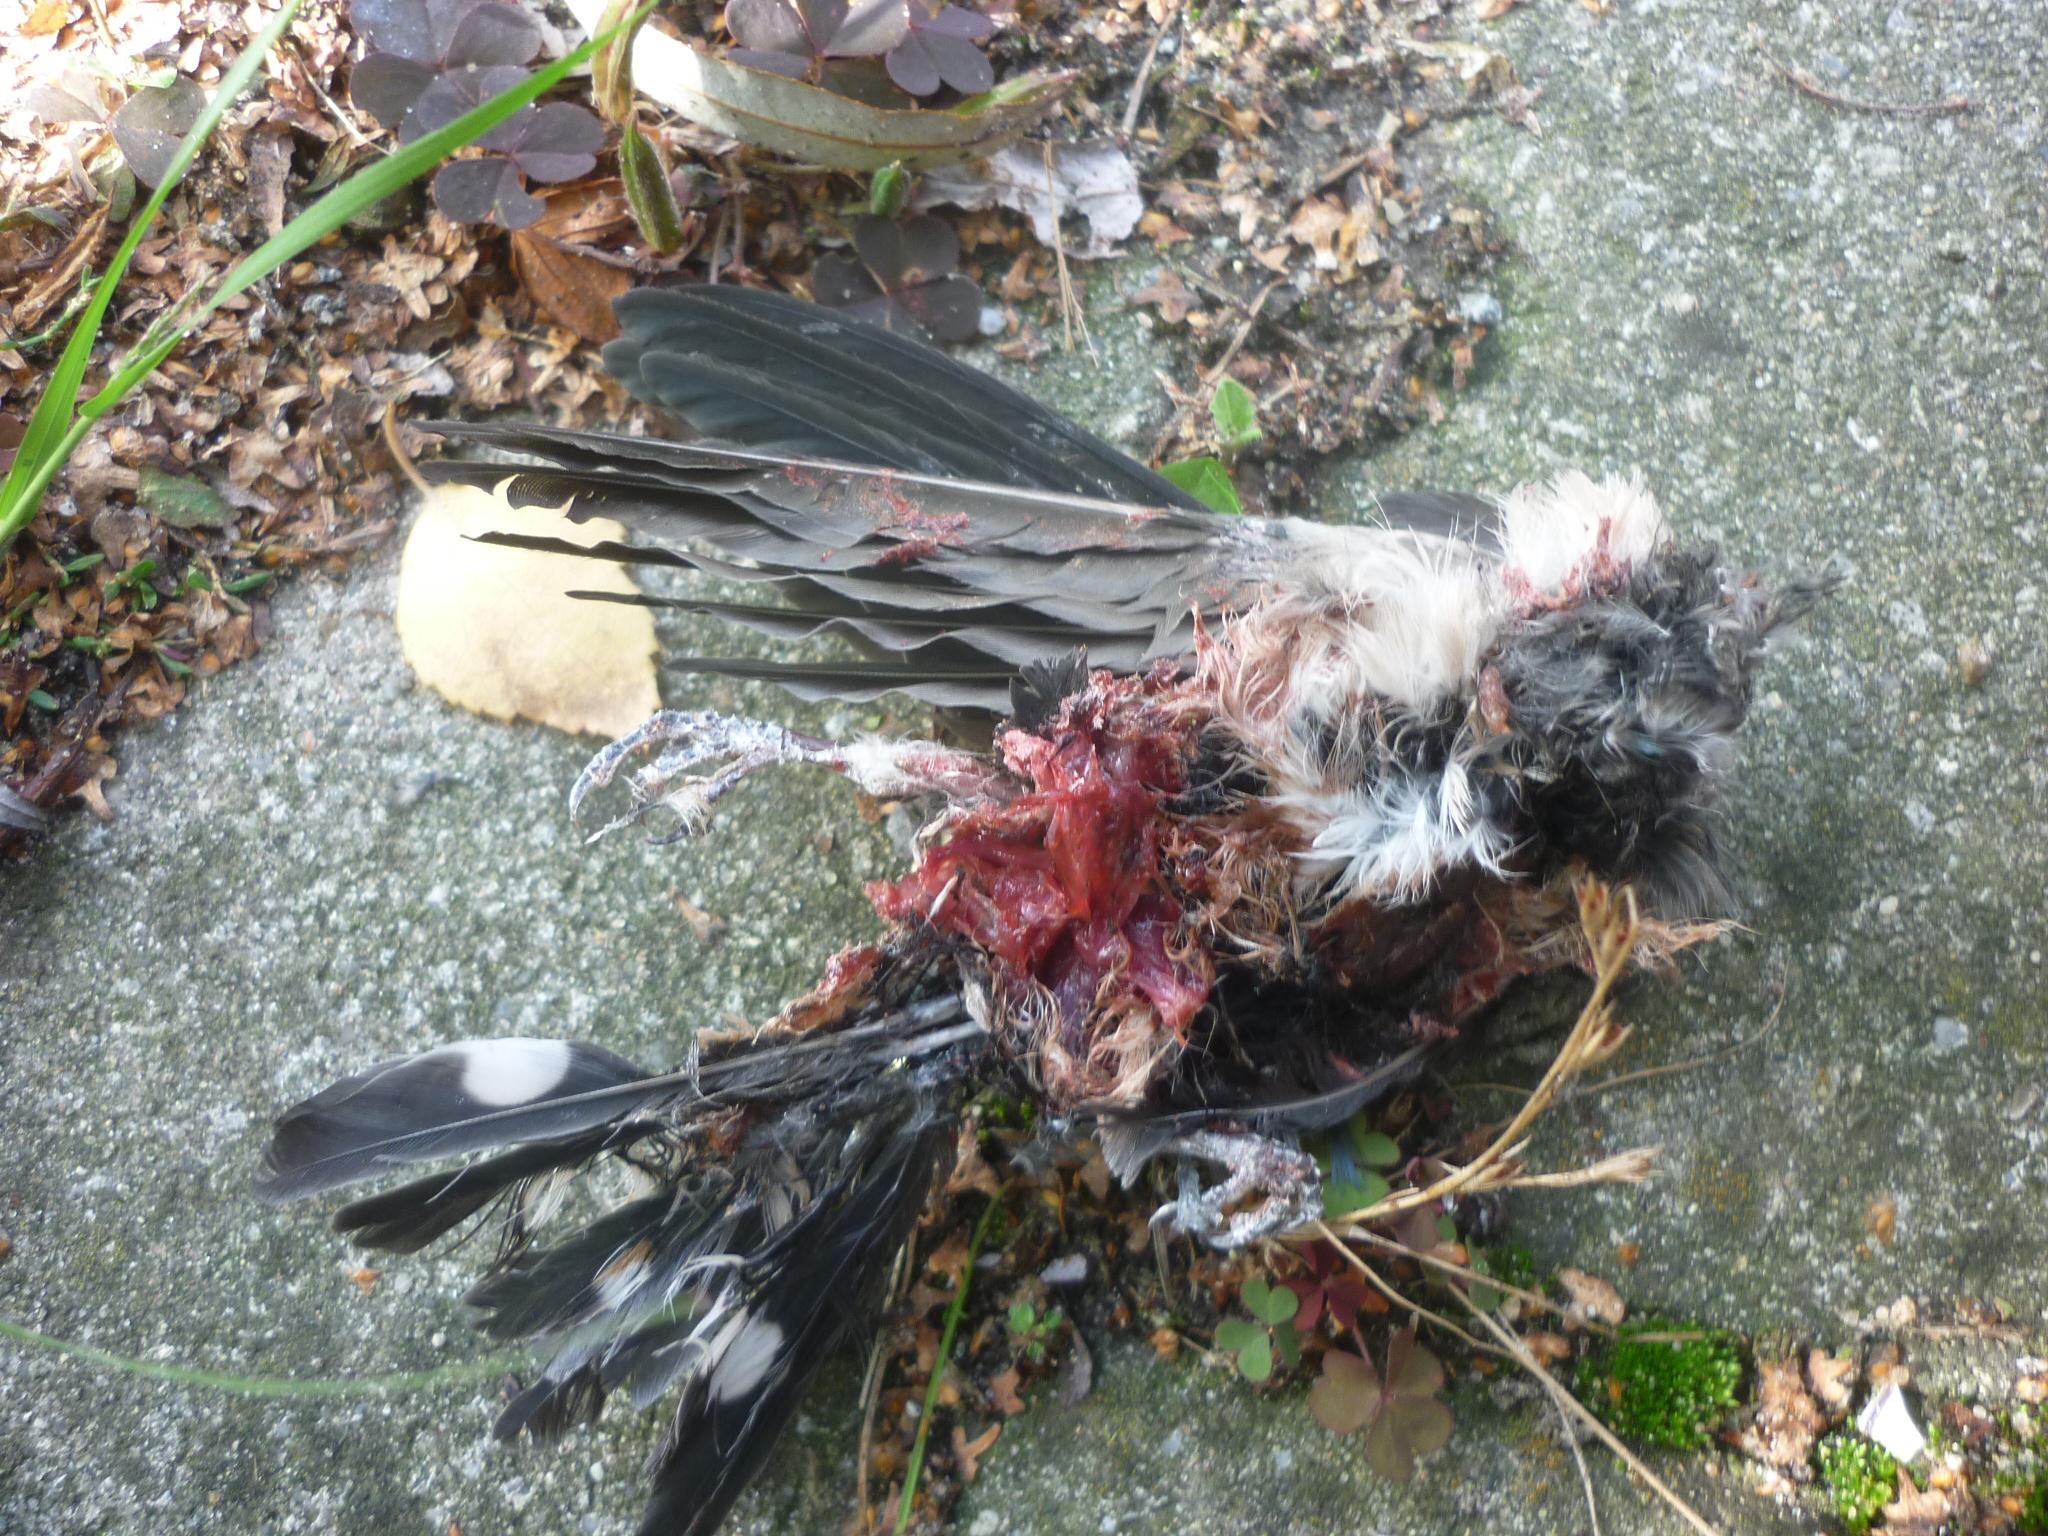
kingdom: Animalia
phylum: Chordata
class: Aves
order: Piciformes
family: Picidae
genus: Dryobates
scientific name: Dryobates minor
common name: Lesser spotted woodpecker
